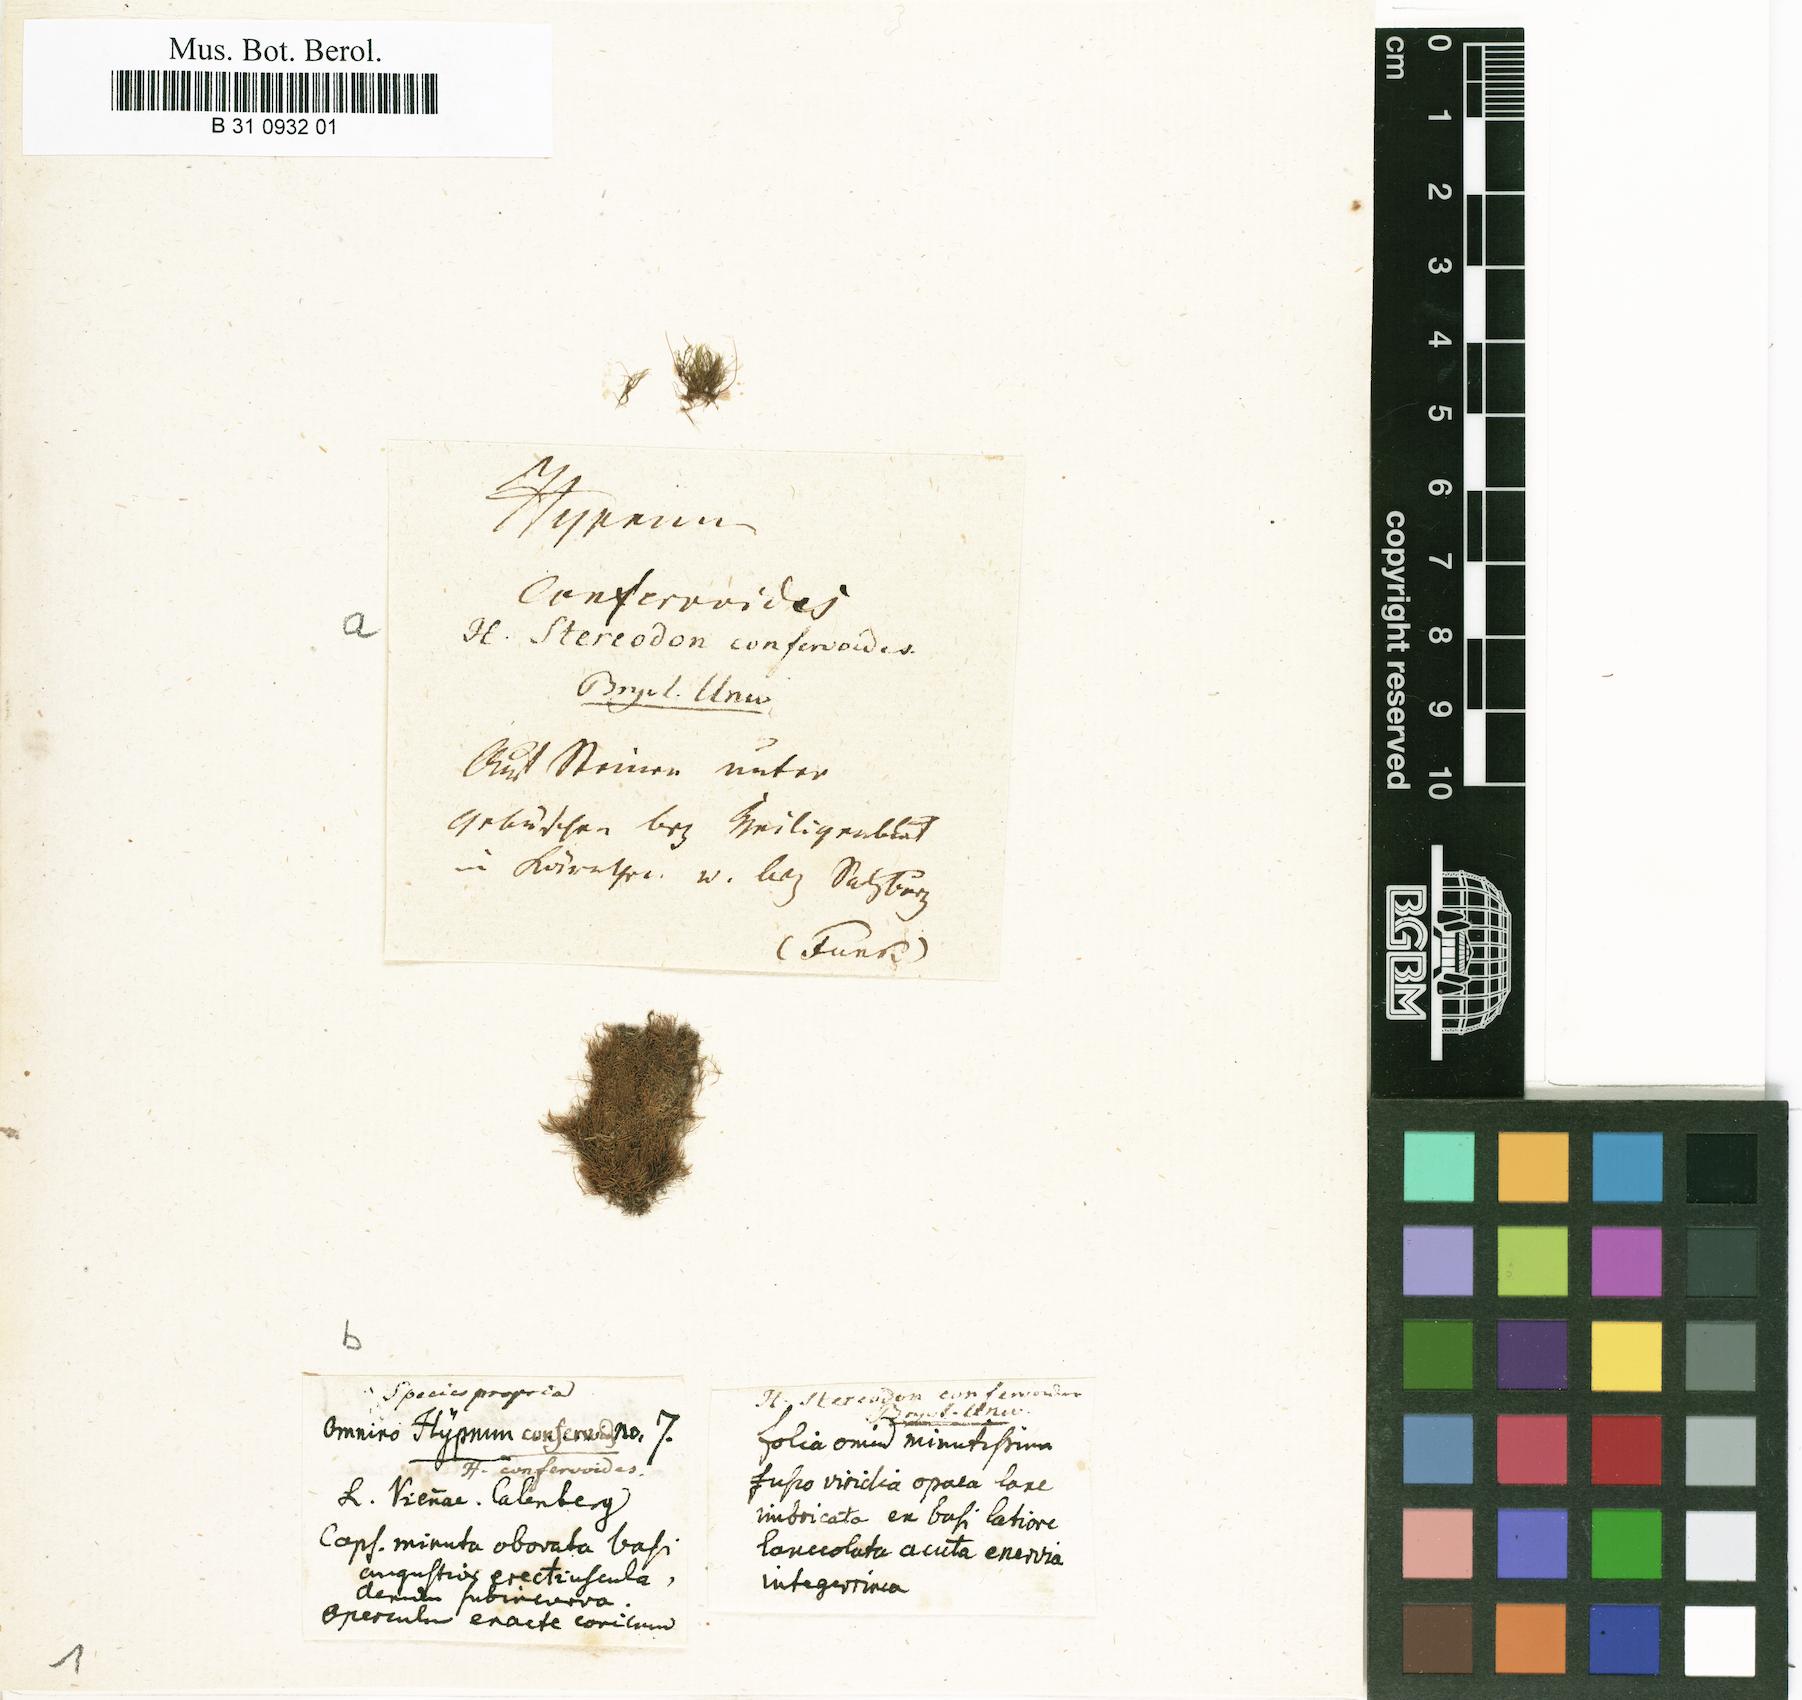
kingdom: Plantae
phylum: Bryophyta
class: Bryopsida
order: Hypnales
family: Amblystegiaceae
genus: Serpoleskea
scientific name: Serpoleskea confervoides
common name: Alga-like matted-moss
